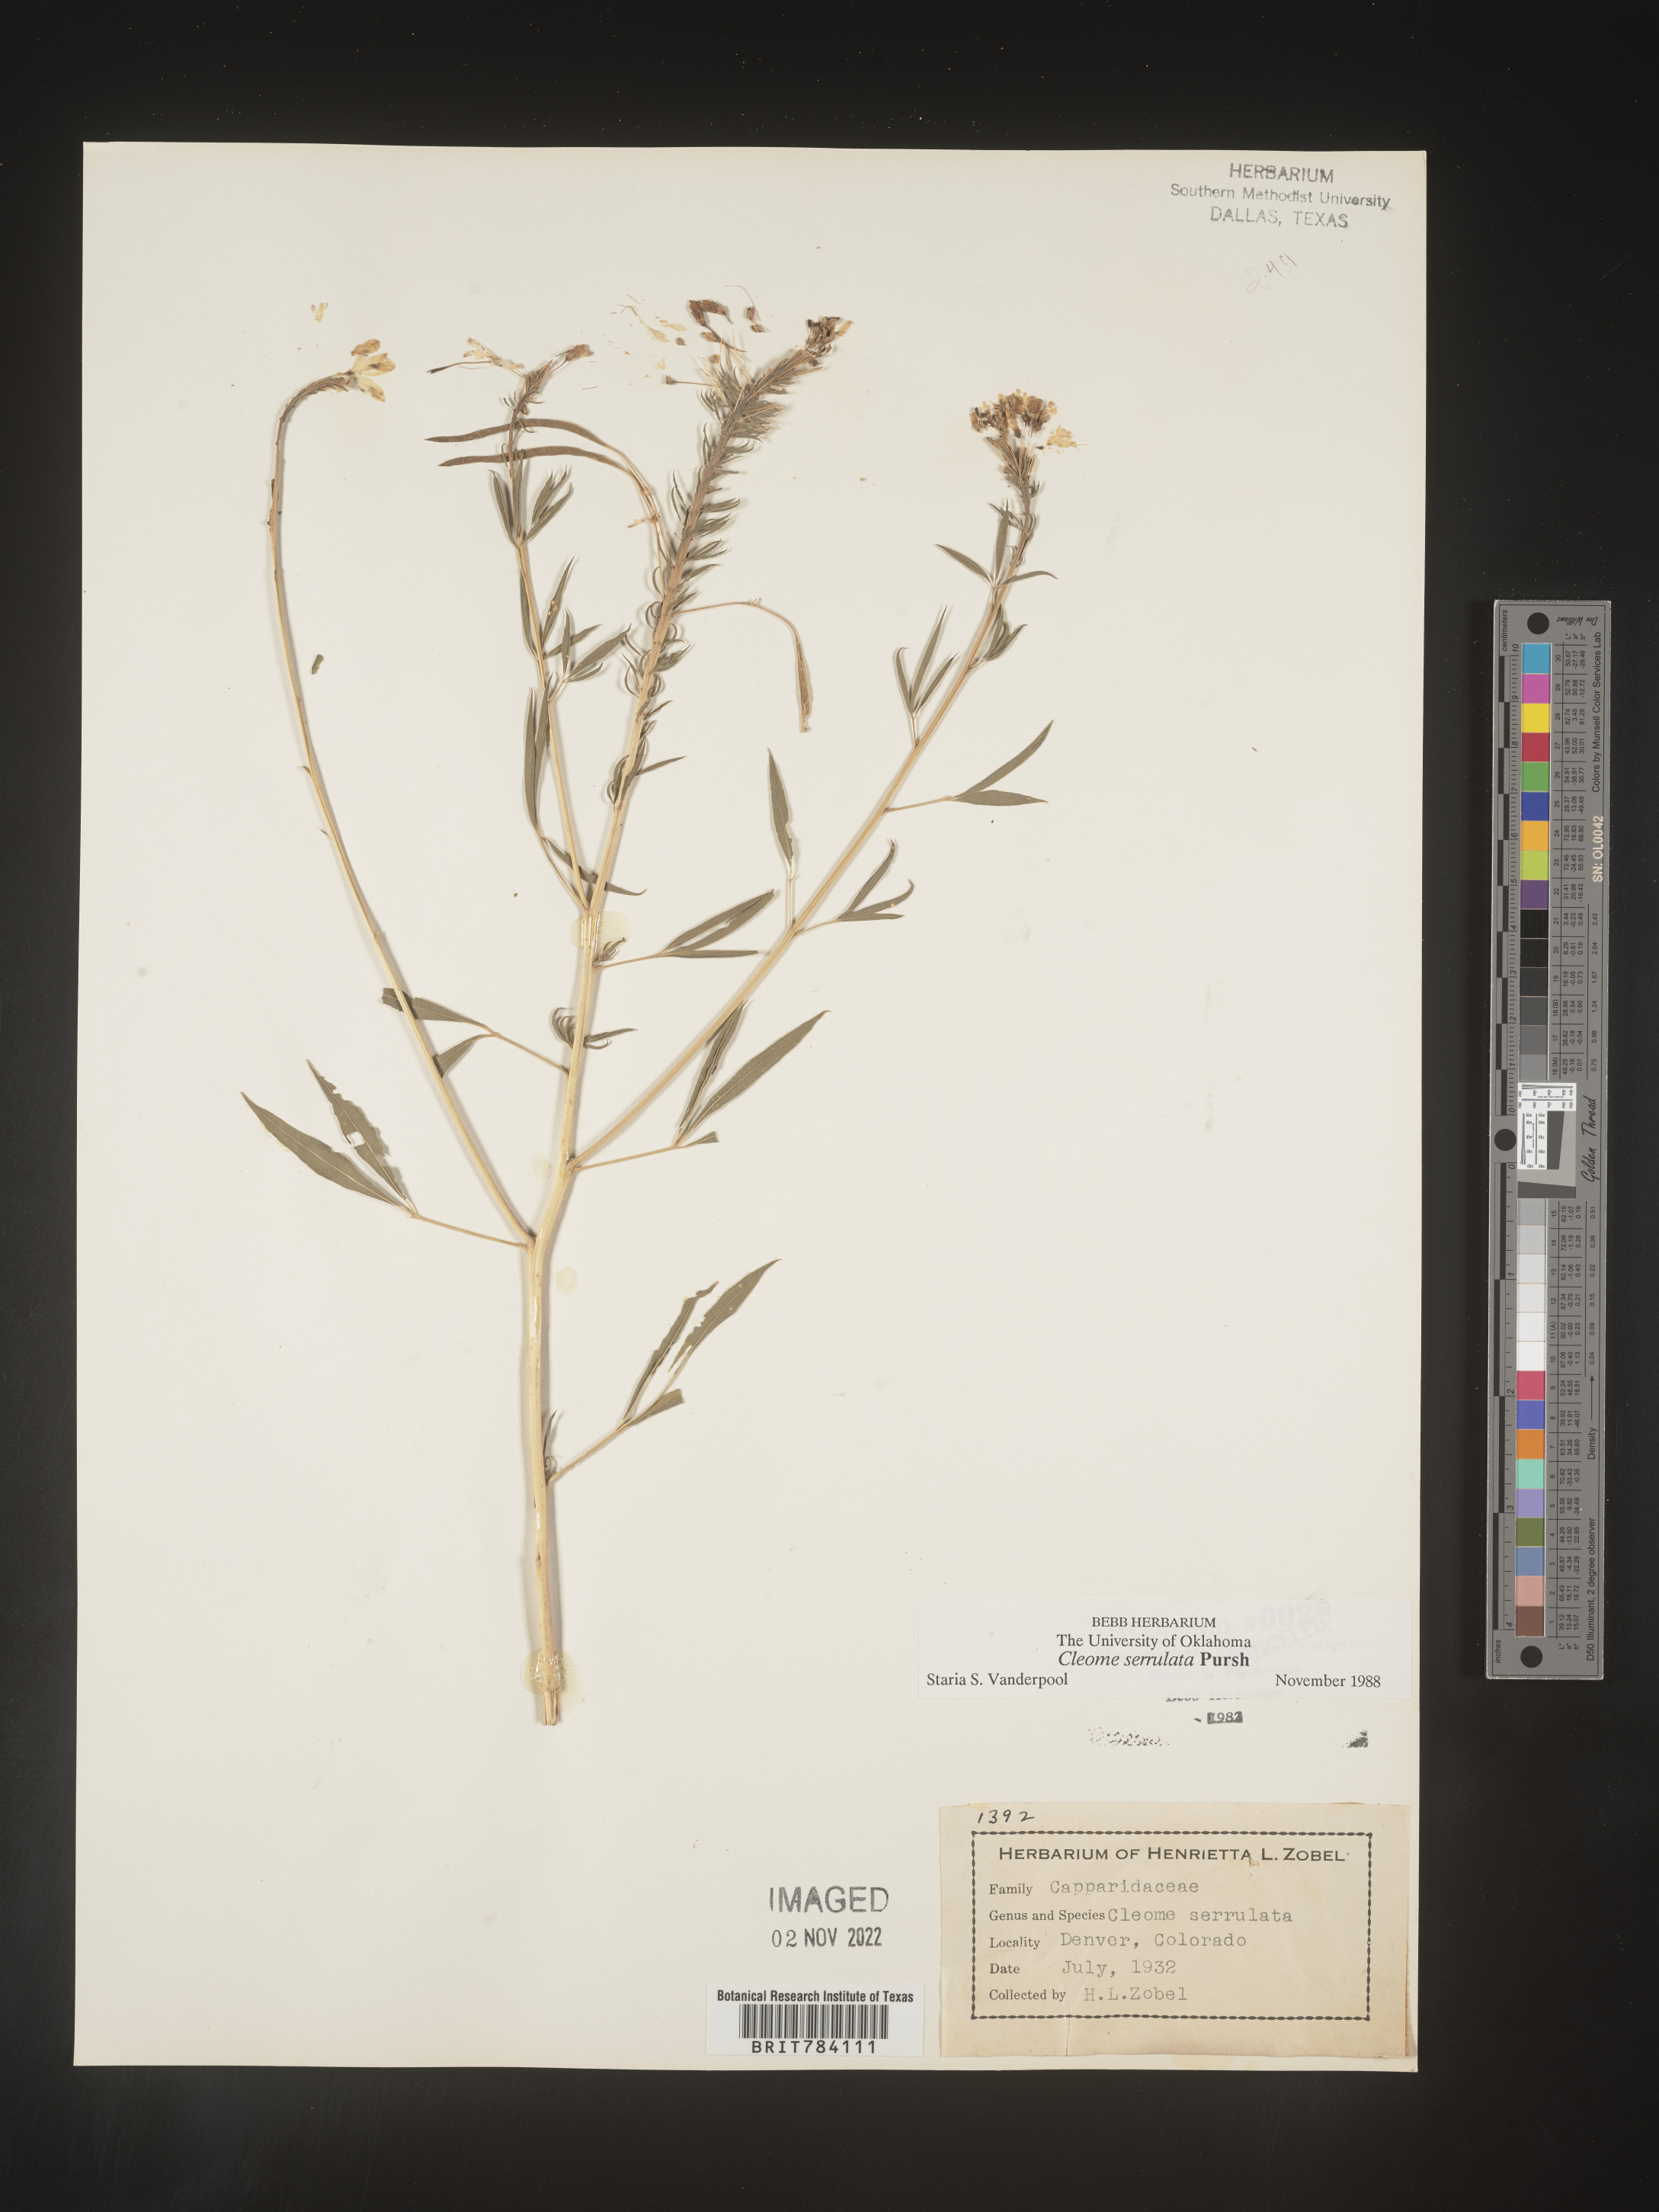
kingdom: Plantae
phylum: Tracheophyta
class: Magnoliopsida
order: Brassicales
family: Cleomaceae
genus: Cleomella
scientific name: Cleomella serrulata
